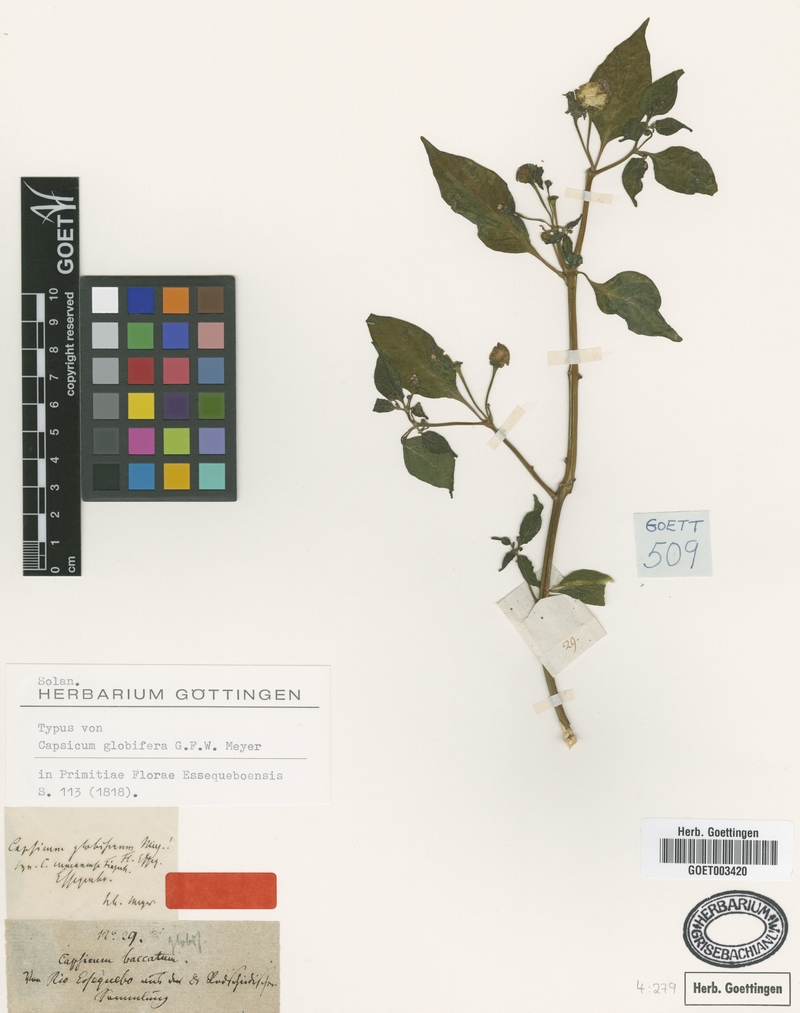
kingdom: Plantae
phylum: Tracheophyta
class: Magnoliopsida
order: Solanales
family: Solanaceae
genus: Capsicum
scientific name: Capsicum annuum
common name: Sweet pepper
